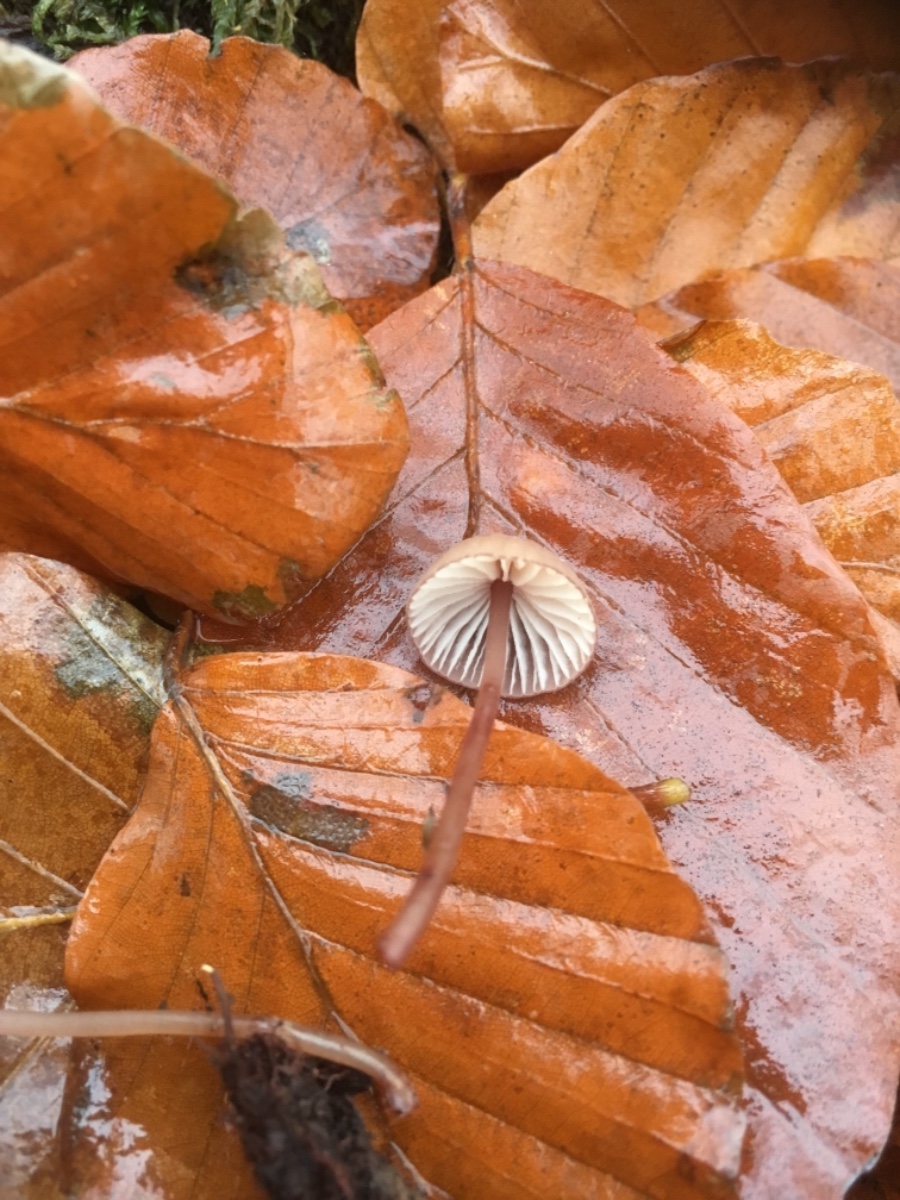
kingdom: Fungi
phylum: Basidiomycota
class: Agaricomycetes
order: Agaricales
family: Mycenaceae
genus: Mycena
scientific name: Mycena sanguinolenta
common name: rødmælket huesvamp
